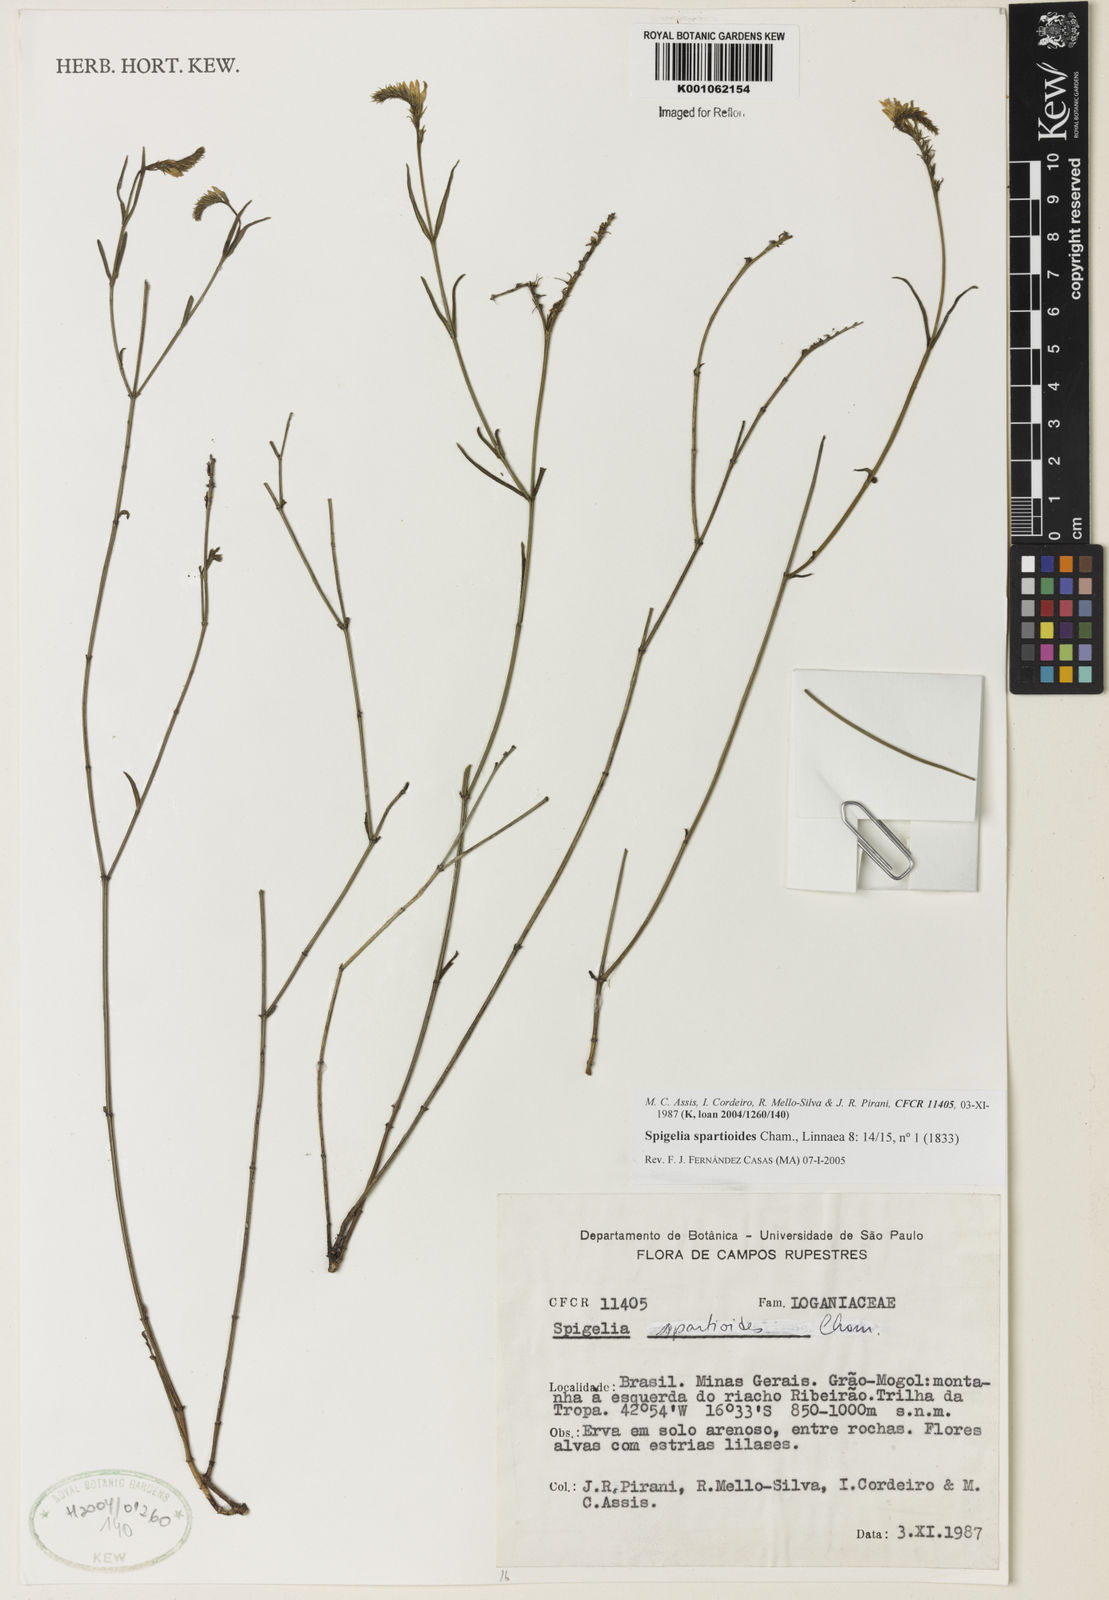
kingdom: Plantae
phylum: Tracheophyta
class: Magnoliopsida
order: Gentianales
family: Loganiaceae
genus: Spigelia
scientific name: Spigelia spartioides
